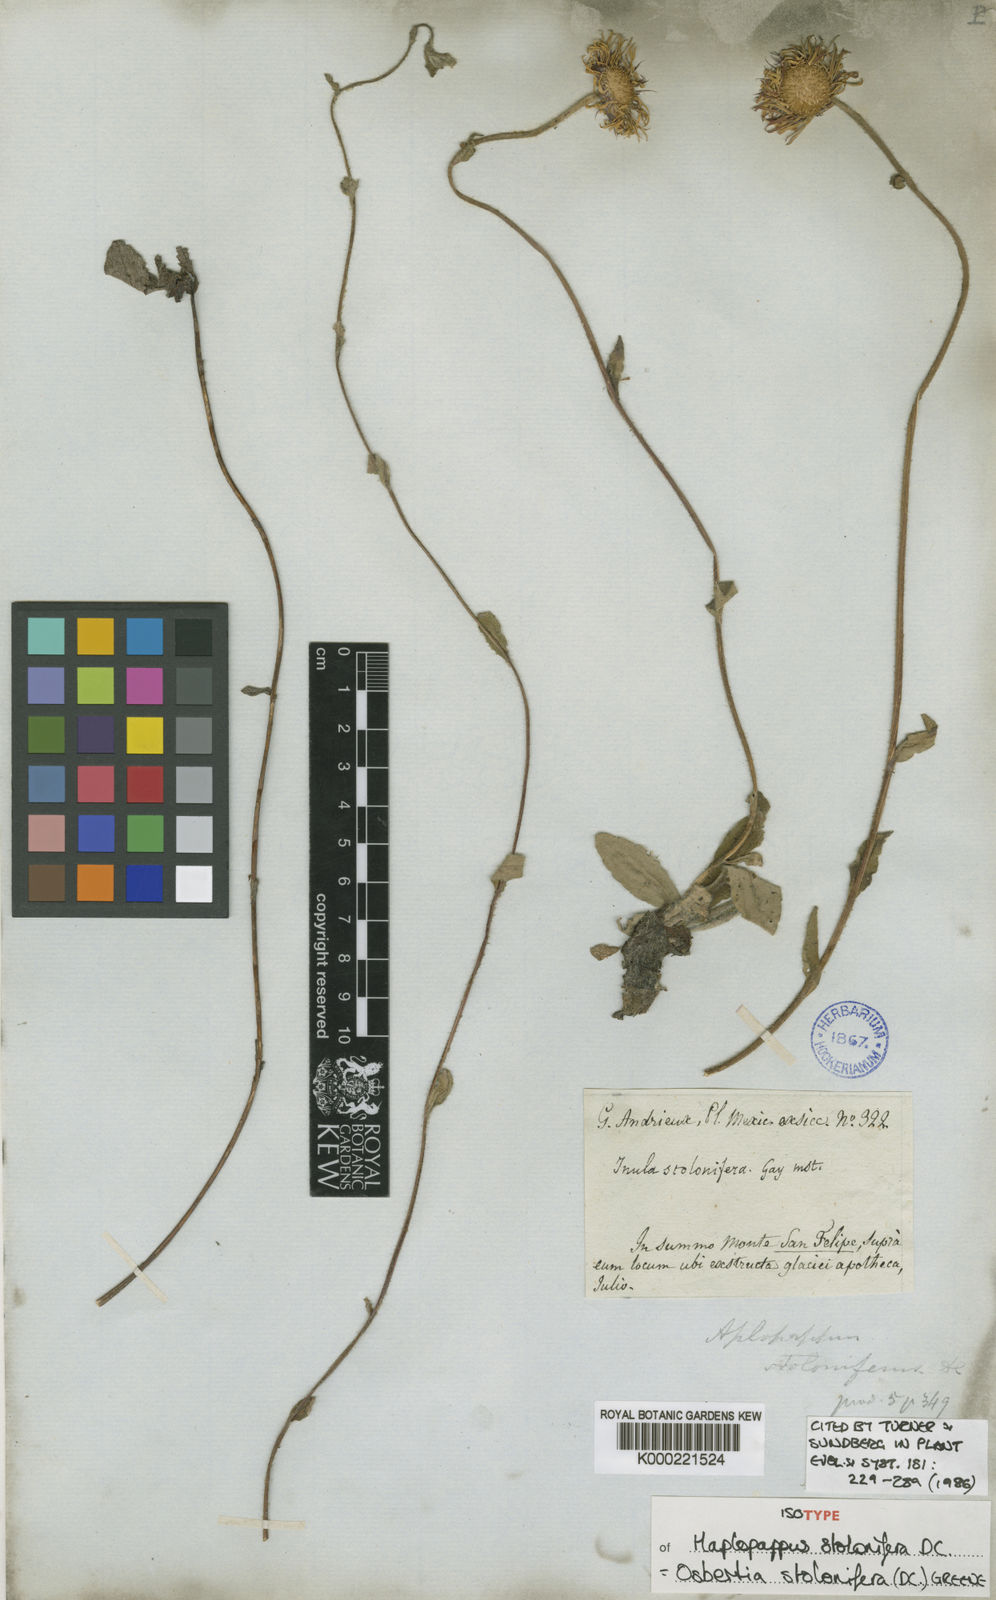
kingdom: Plantae
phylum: Tracheophyta
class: Magnoliopsida
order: Asterales
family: Asteraceae
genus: Osbertia
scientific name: Osbertia stolonifera
